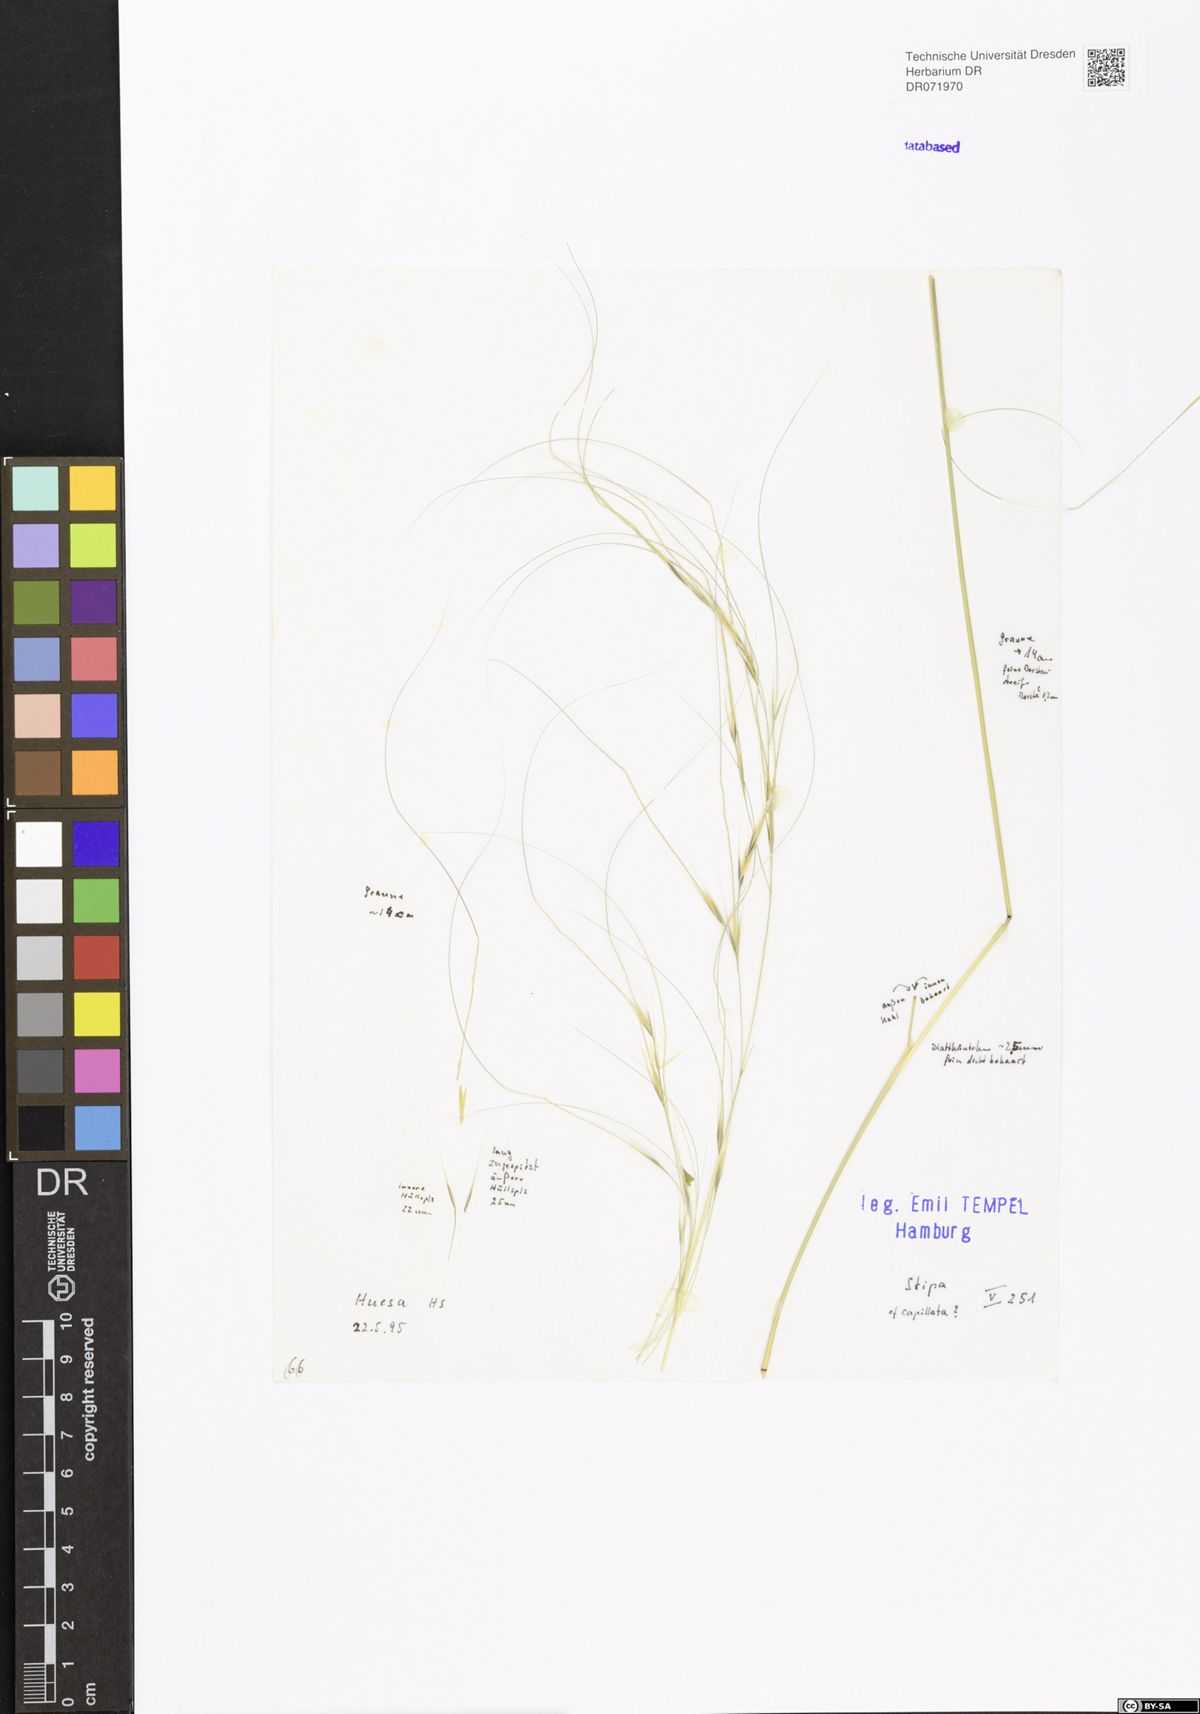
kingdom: Plantae
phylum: Tracheophyta
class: Liliopsida
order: Poales
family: Poaceae
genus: Stipa
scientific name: Stipa capillata
